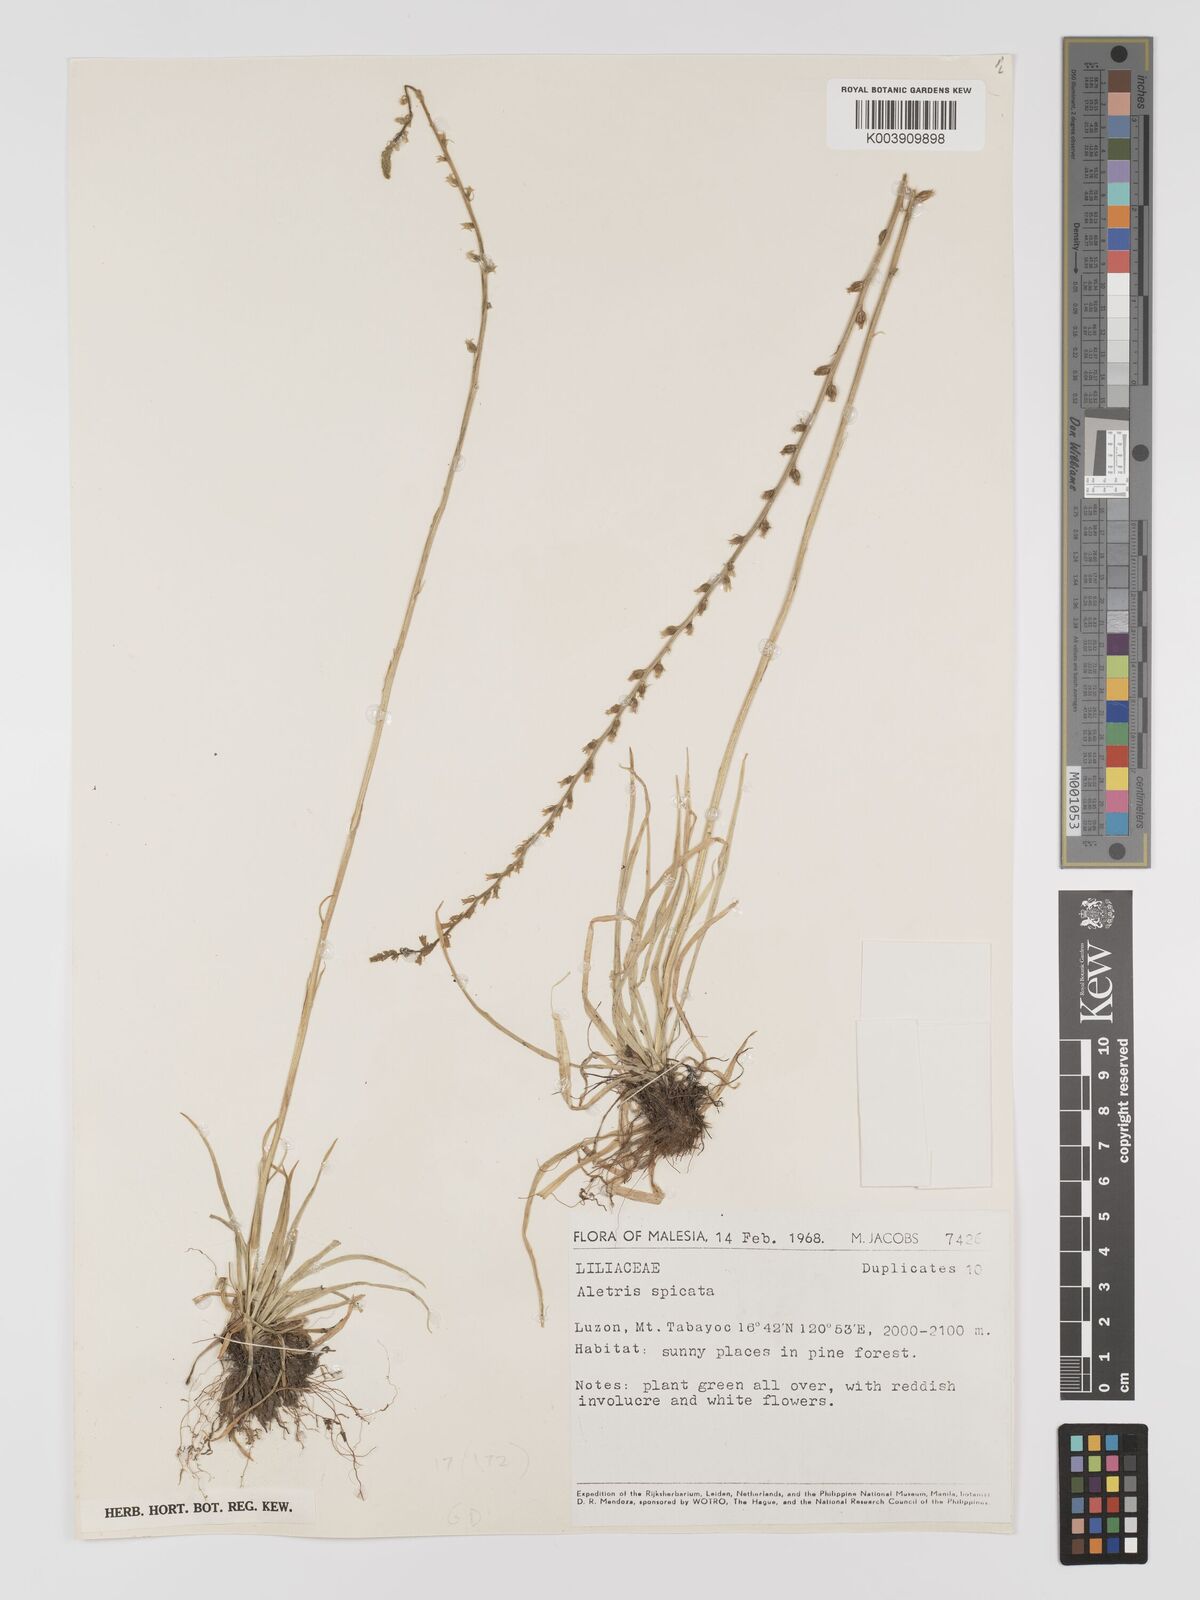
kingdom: Plantae
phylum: Tracheophyta
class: Liliopsida
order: Dioscoreales
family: Nartheciaceae
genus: Aletris
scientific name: Aletris spicata
